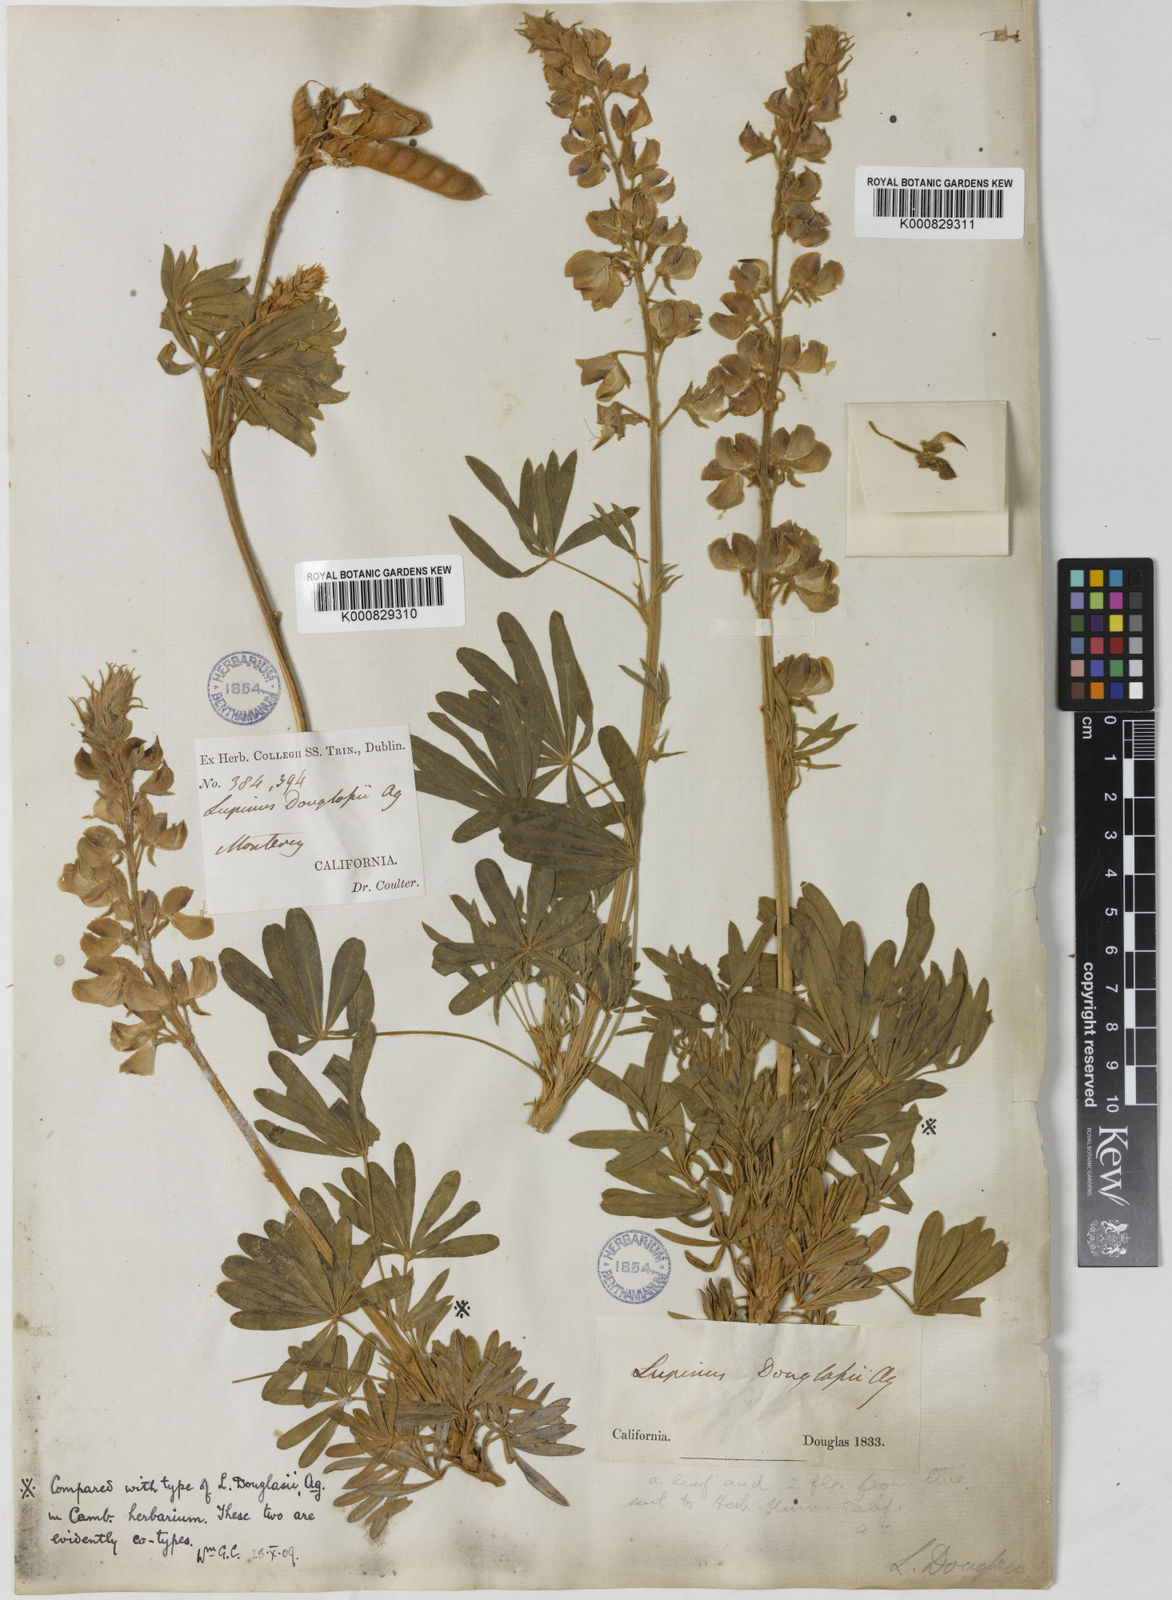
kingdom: Plantae
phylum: Tracheophyta
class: Magnoliopsida
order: Fabales
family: Fabaceae
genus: Lupinus
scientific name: Lupinus albifrons
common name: Foothill lupine
